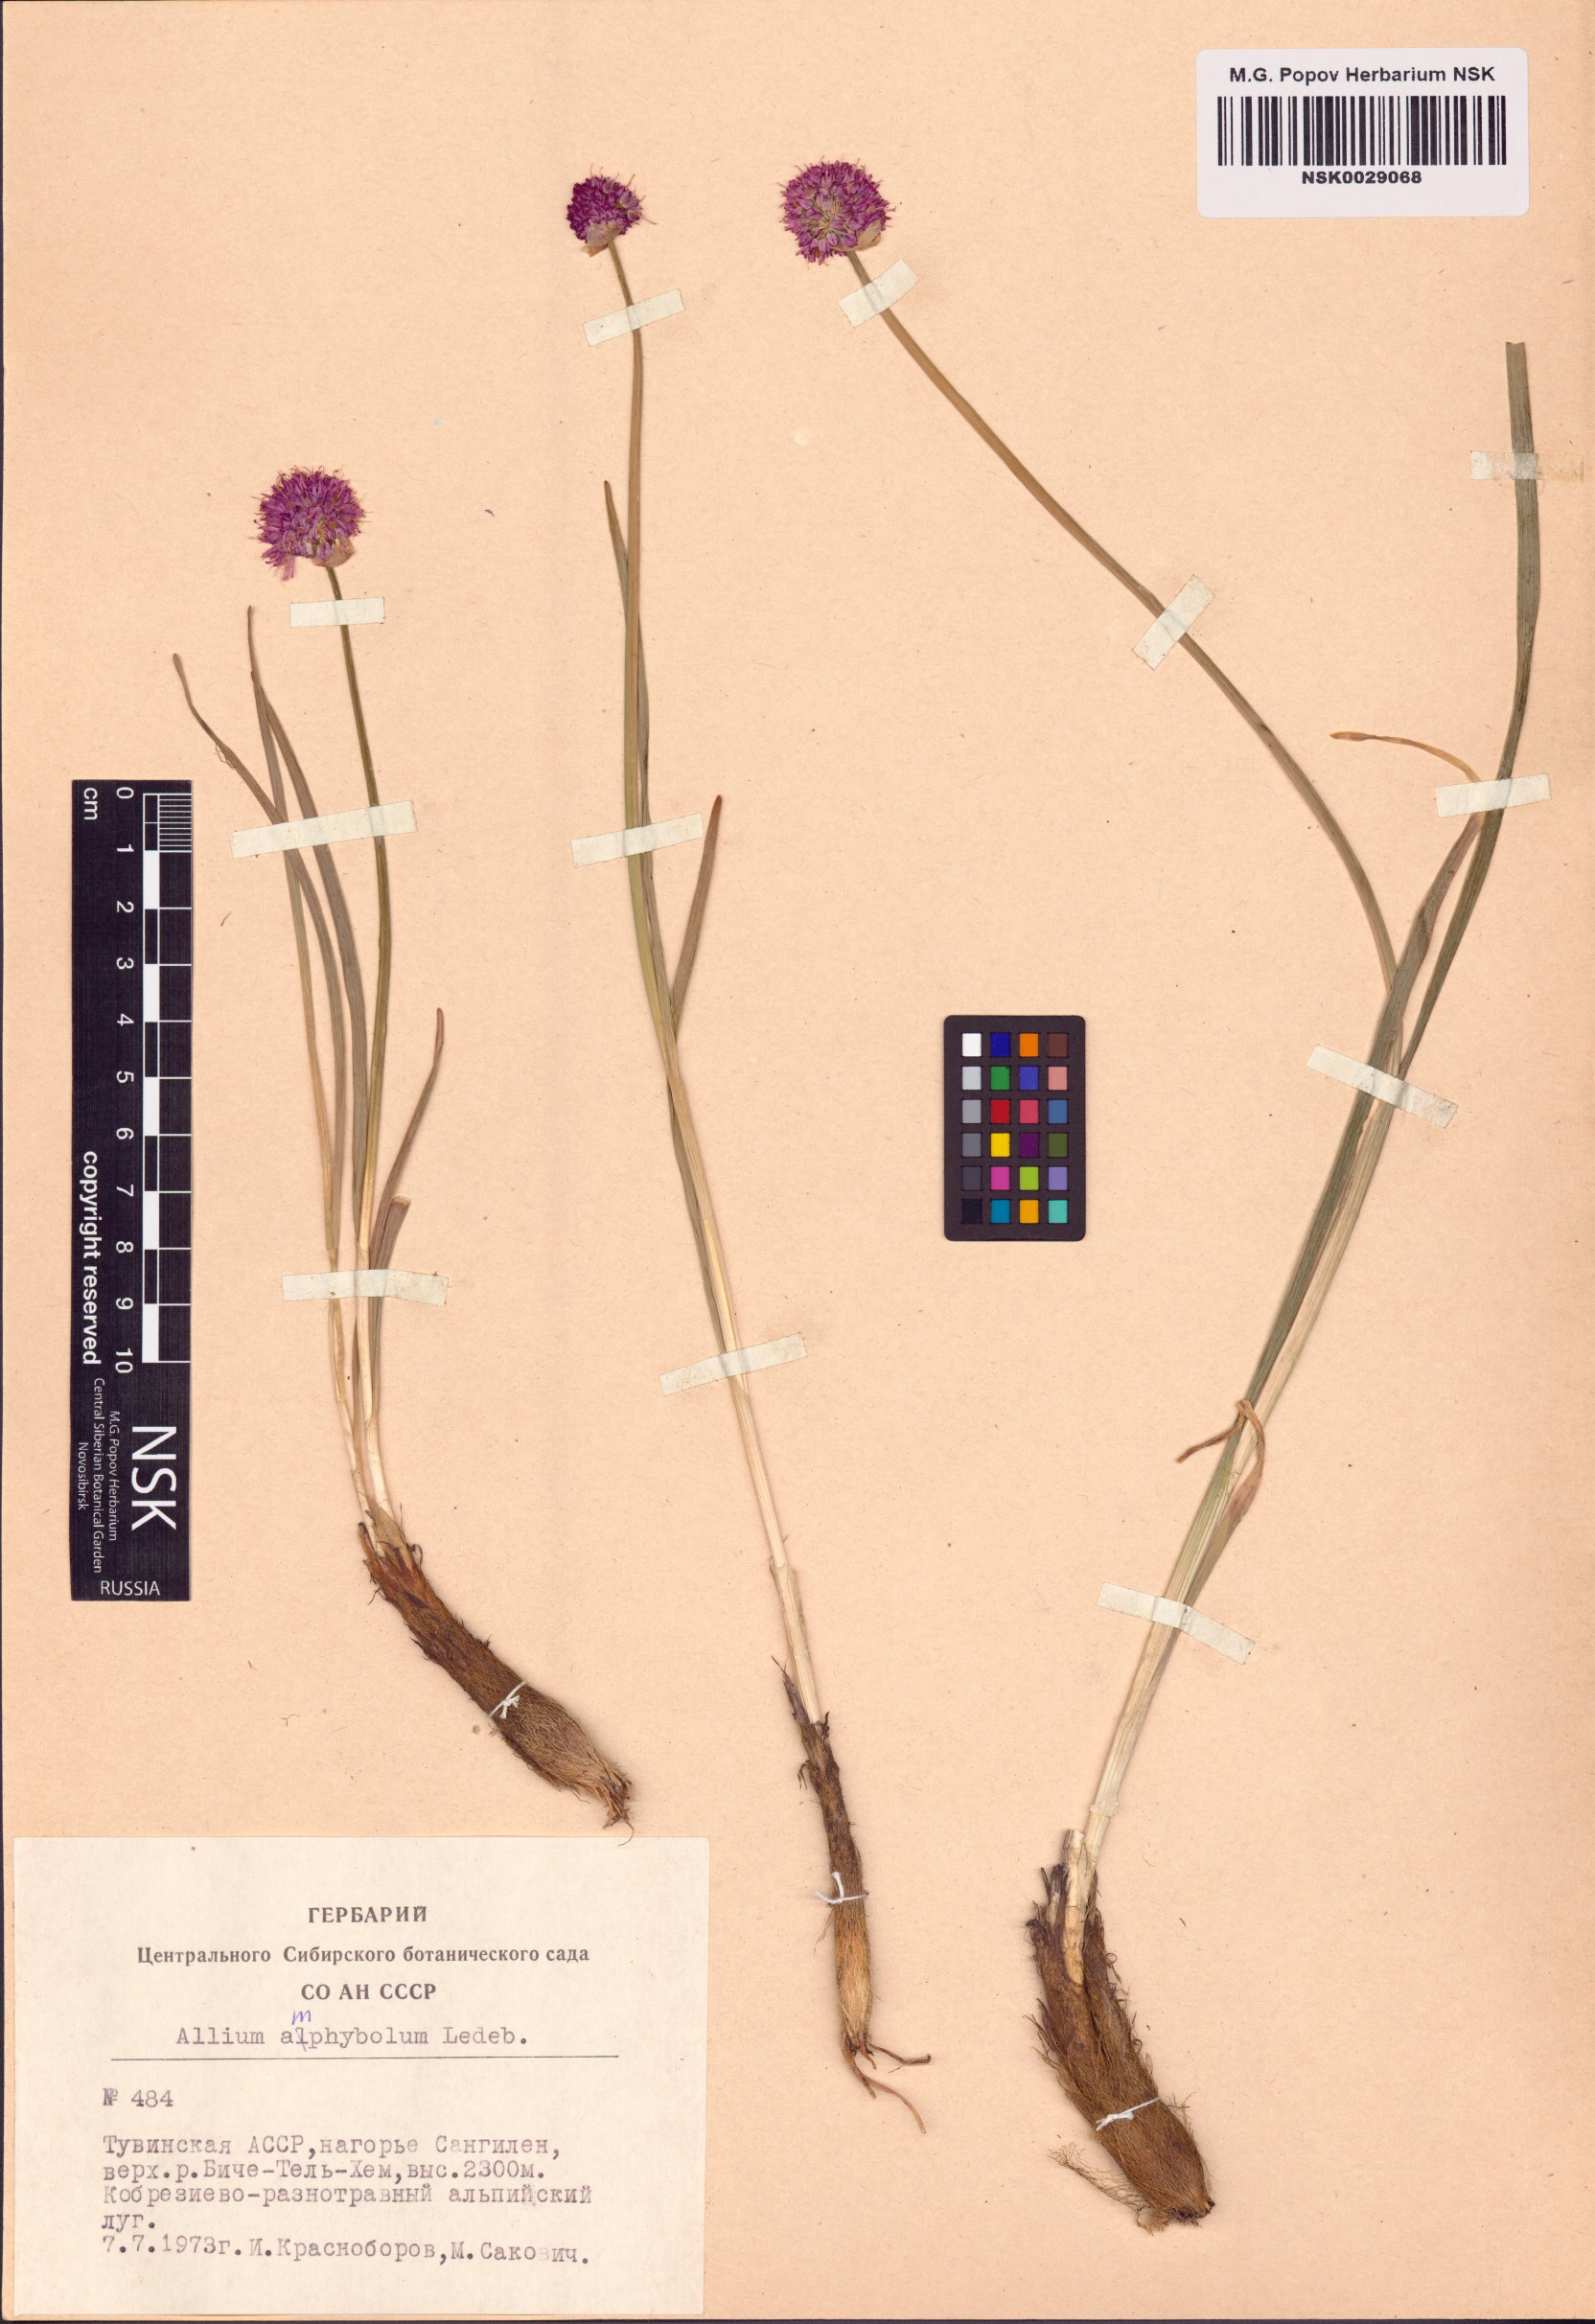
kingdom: Plantae
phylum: Tracheophyta
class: Liliopsida
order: Asparagales
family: Amaryllidaceae
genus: Allium
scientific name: Allium amphibolum
